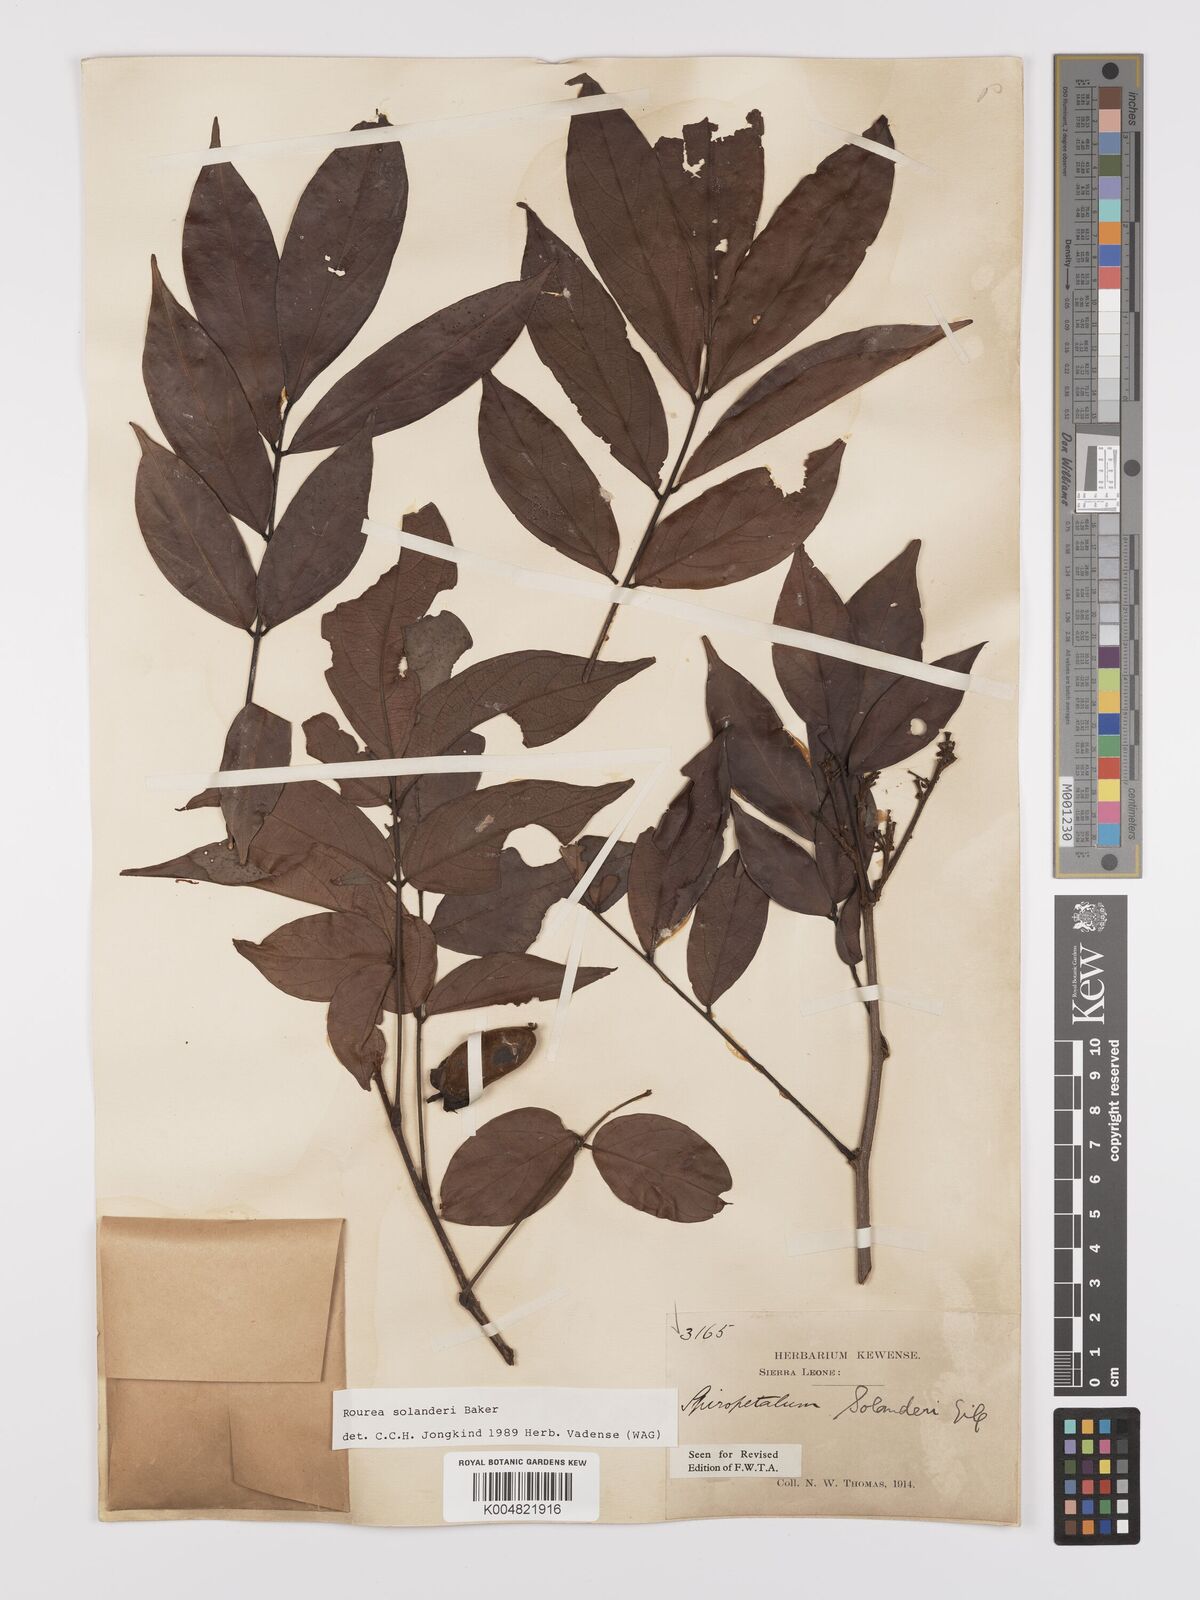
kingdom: Plantae
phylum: Tracheophyta
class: Magnoliopsida
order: Oxalidales
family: Connaraceae
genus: Rourea
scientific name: Rourea solanderi
